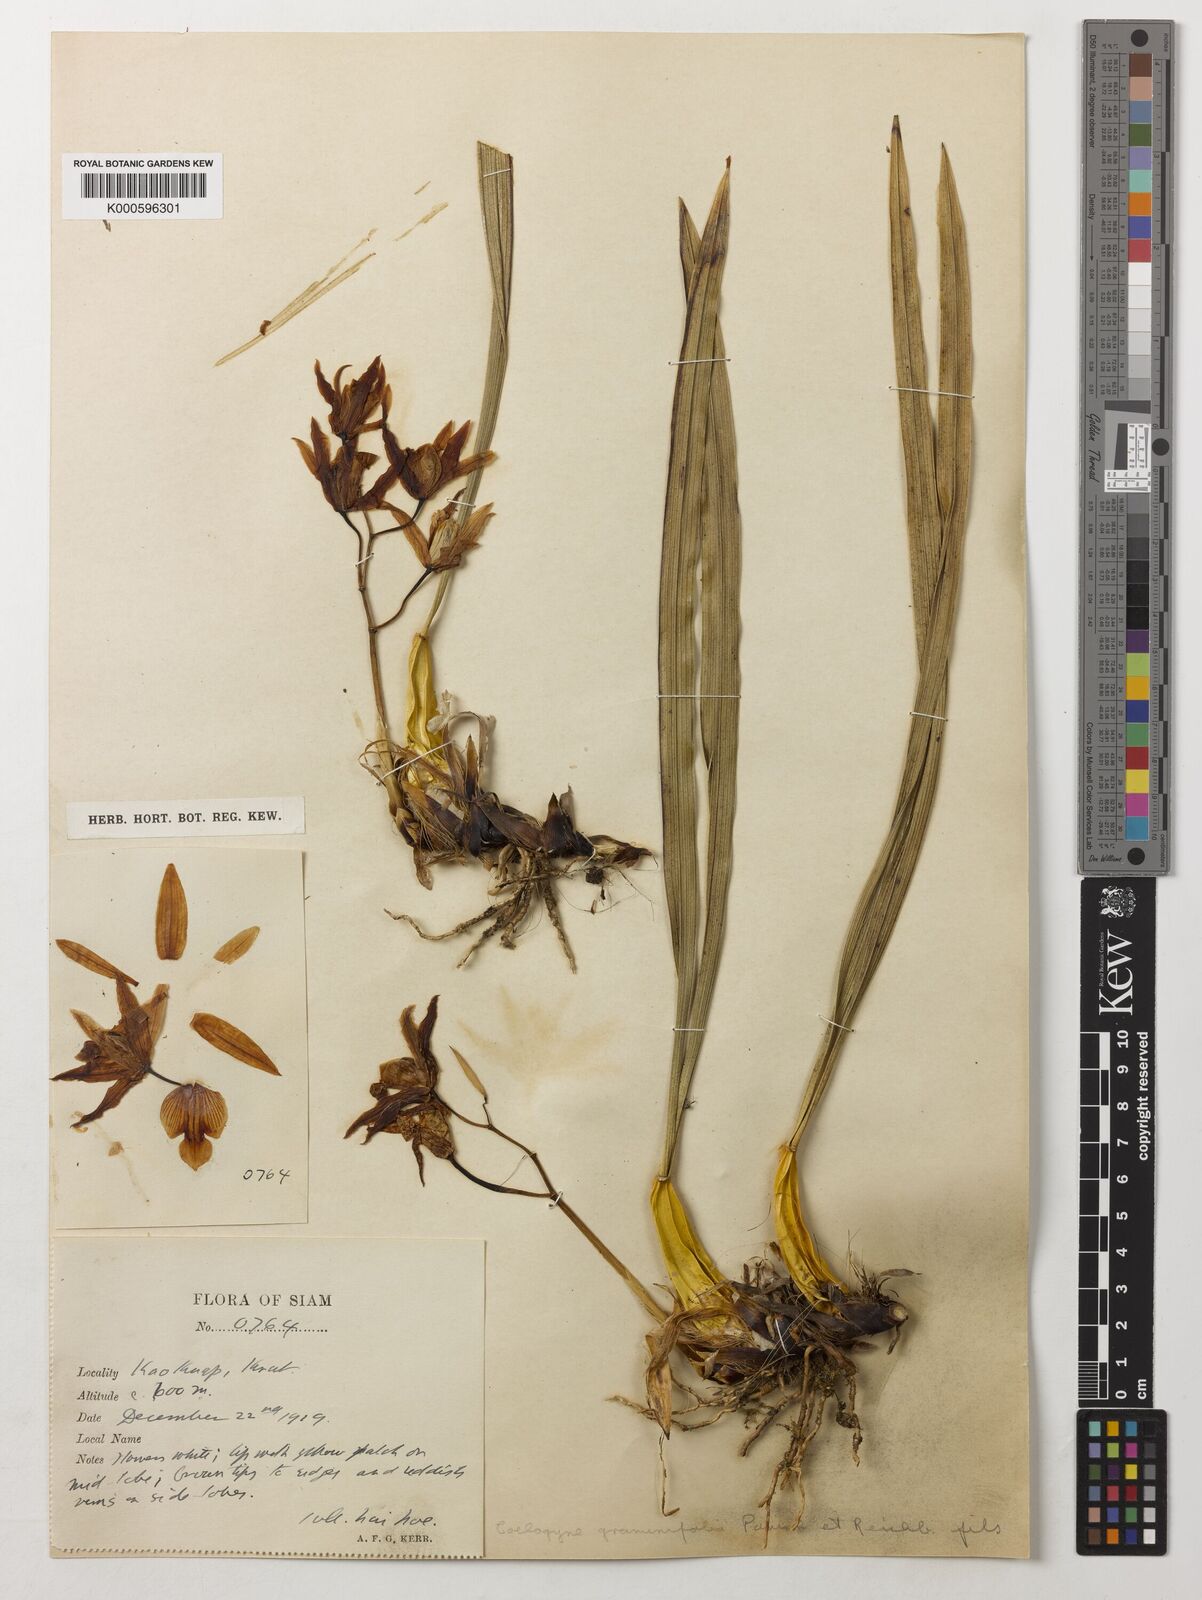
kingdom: Plantae
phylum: Tracheophyta
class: Liliopsida
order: Asparagales
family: Orchidaceae
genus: Coelogyne
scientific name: Coelogyne viscosa
